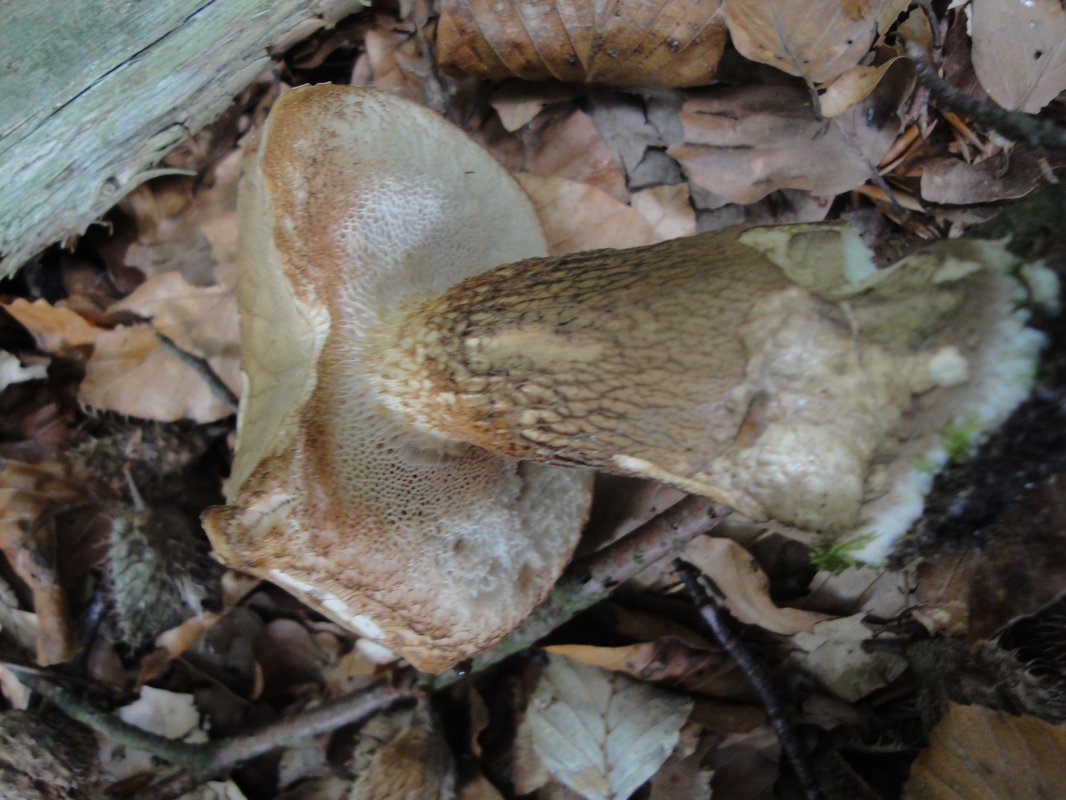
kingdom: Fungi
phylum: Basidiomycota
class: Agaricomycetes
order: Boletales
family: Boletaceae
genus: Tylopilus
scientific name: Tylopilus felleus
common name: galderørhat
